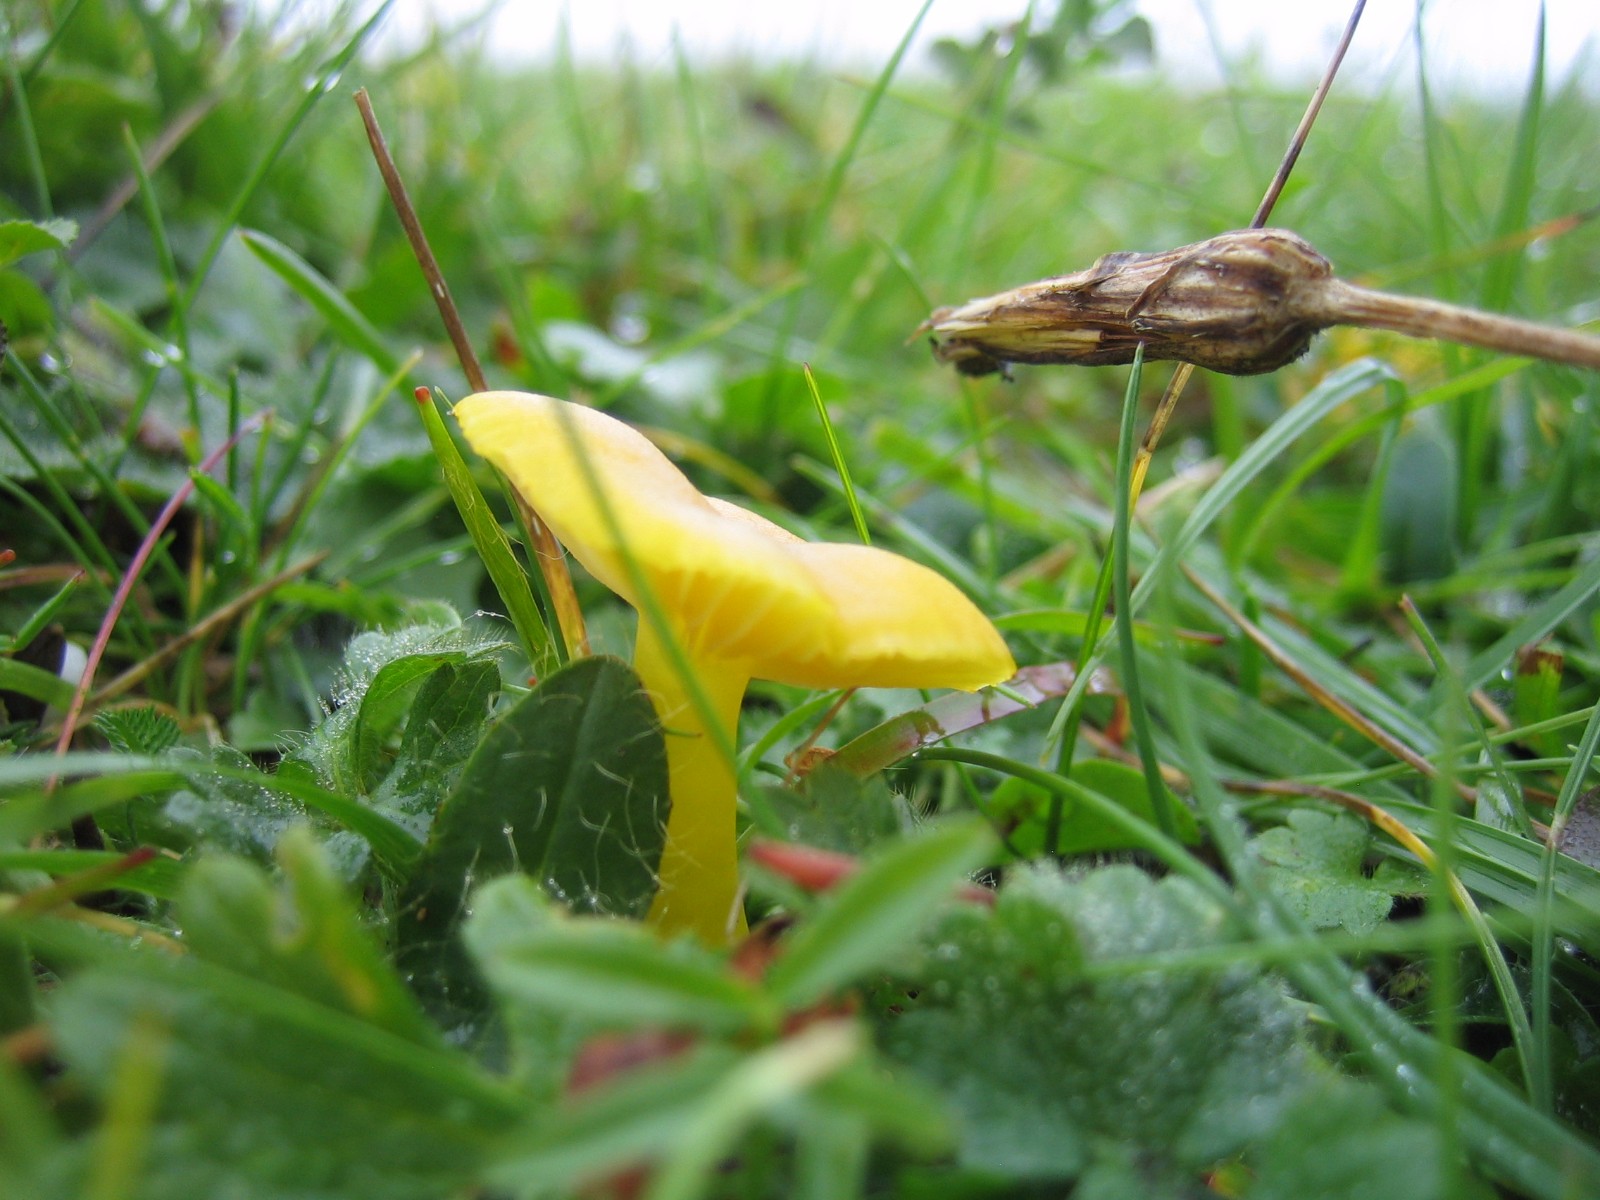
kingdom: Fungi
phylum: Basidiomycota
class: Agaricomycetes
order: Agaricales
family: Hygrophoraceae
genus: Hygrocybe
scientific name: Hygrocybe ceracea
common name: voksgul vokshat
